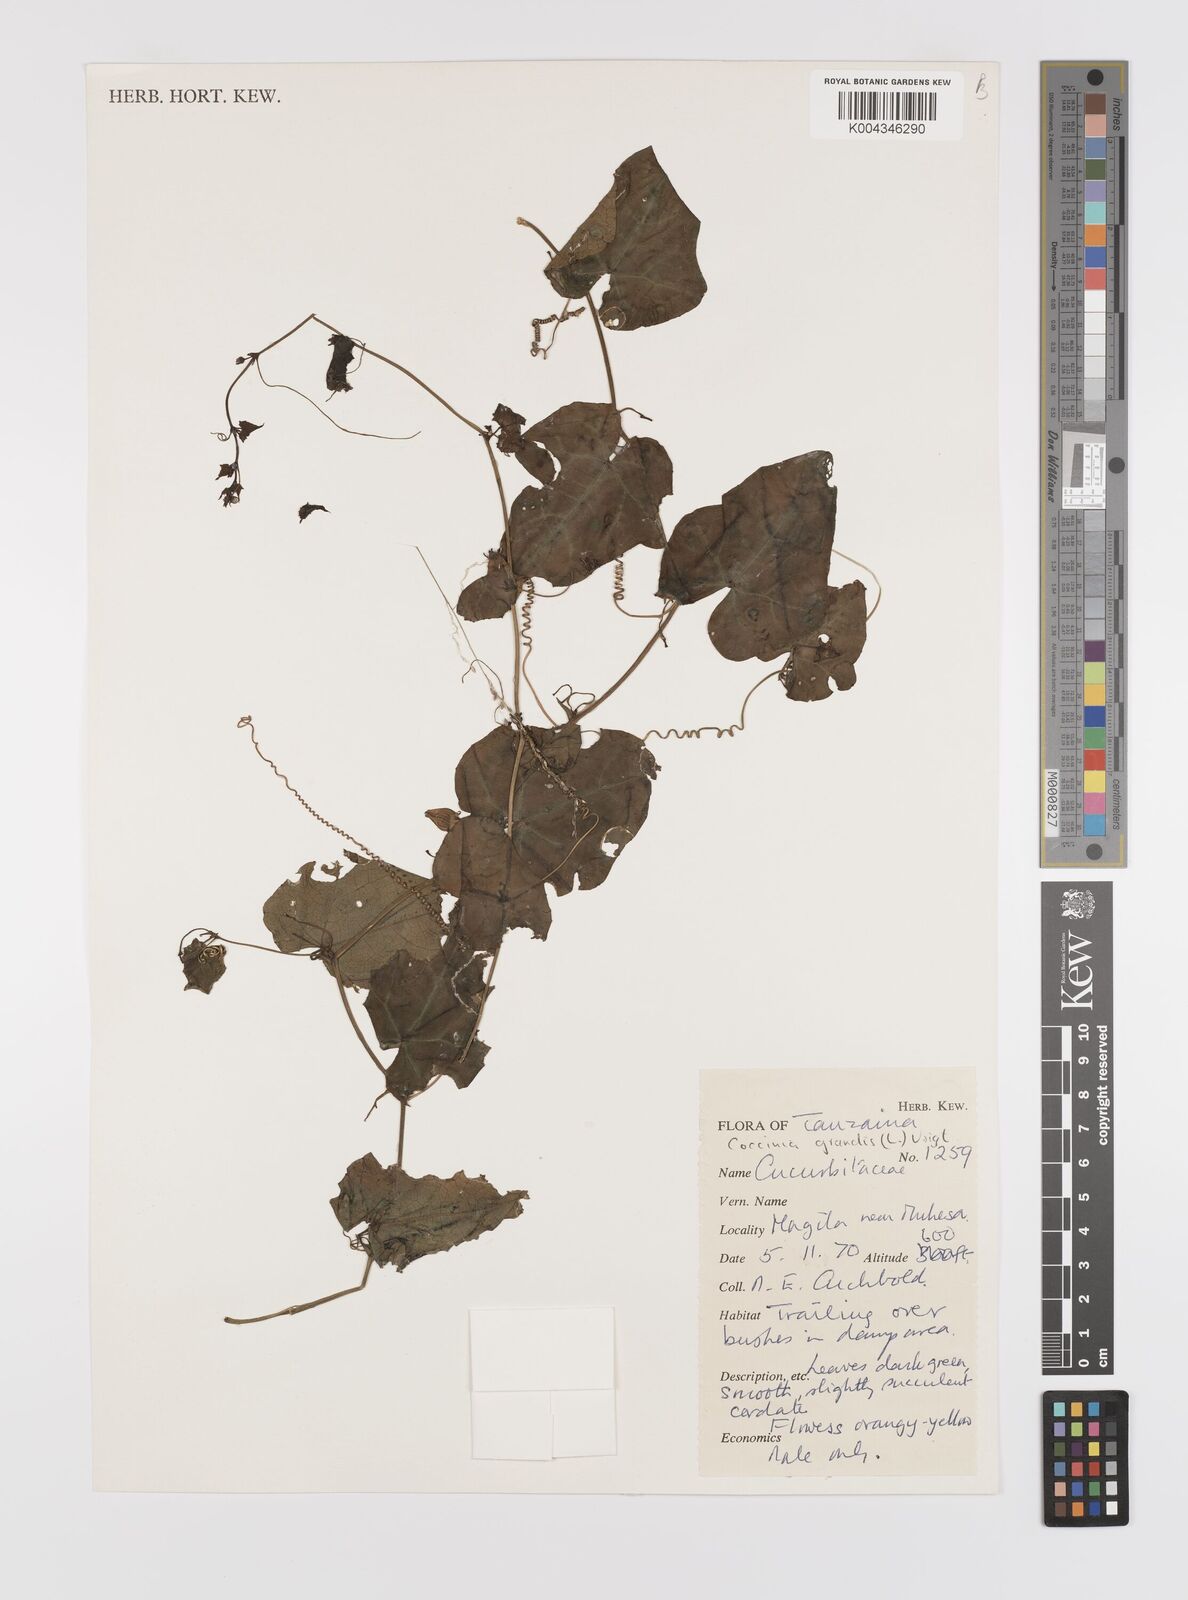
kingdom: Plantae
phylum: Tracheophyta
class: Magnoliopsida
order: Cucurbitales
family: Cucurbitaceae
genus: Coccinia
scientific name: Coccinia grandis
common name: Ivy gourd
